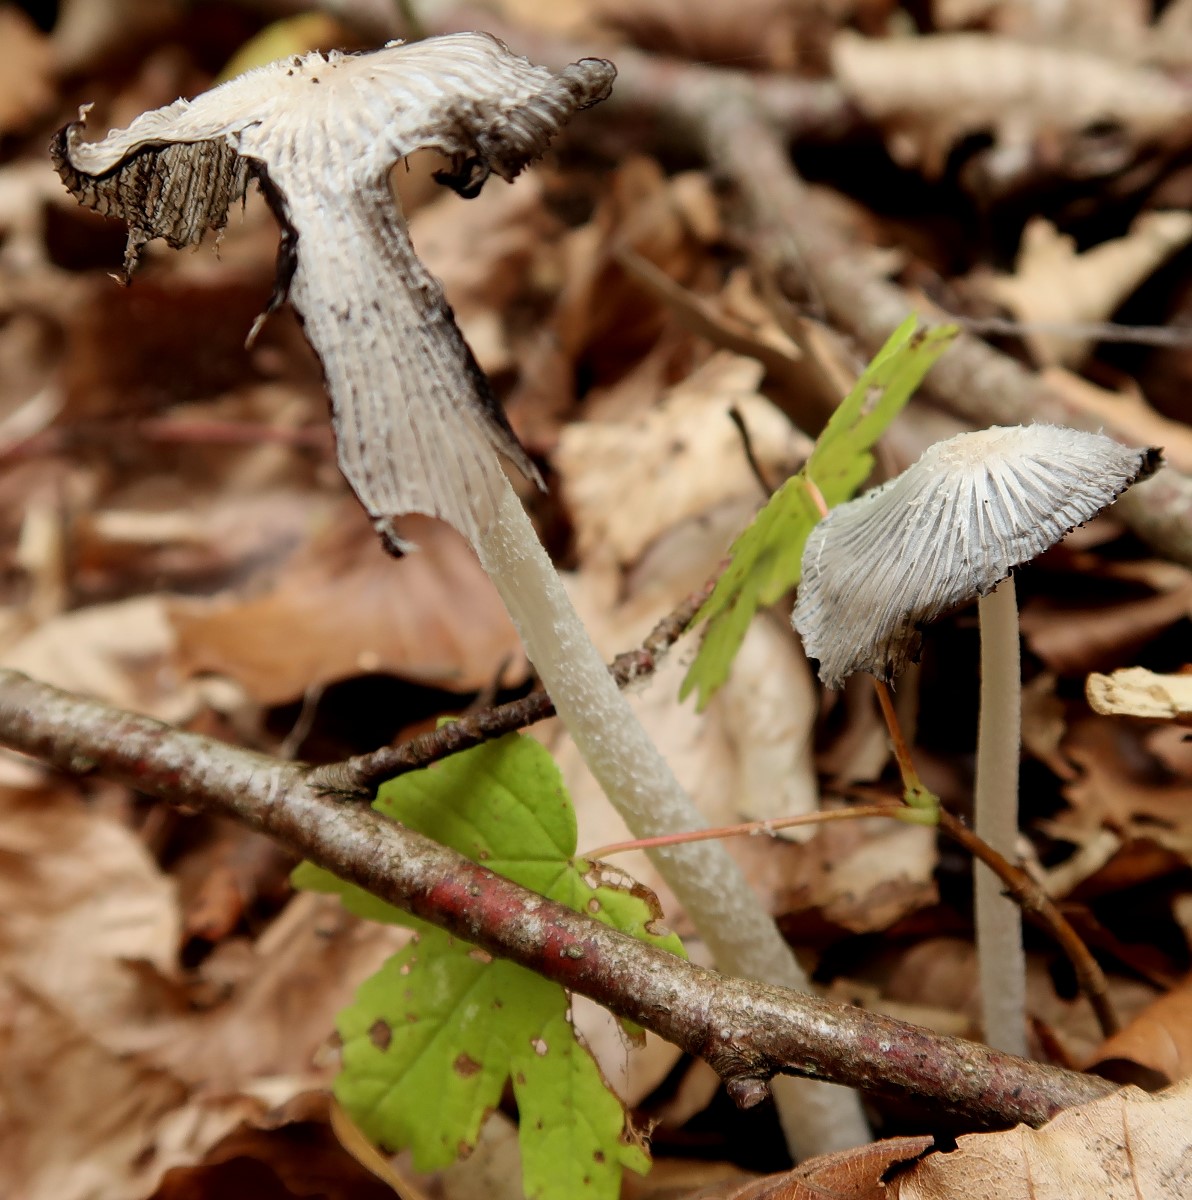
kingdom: Fungi
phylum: Basidiomycota
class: Agaricomycetes
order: Agaricales
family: Psathyrellaceae
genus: Coprinopsis
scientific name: Coprinopsis lagopus
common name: dunstokket blækhat
